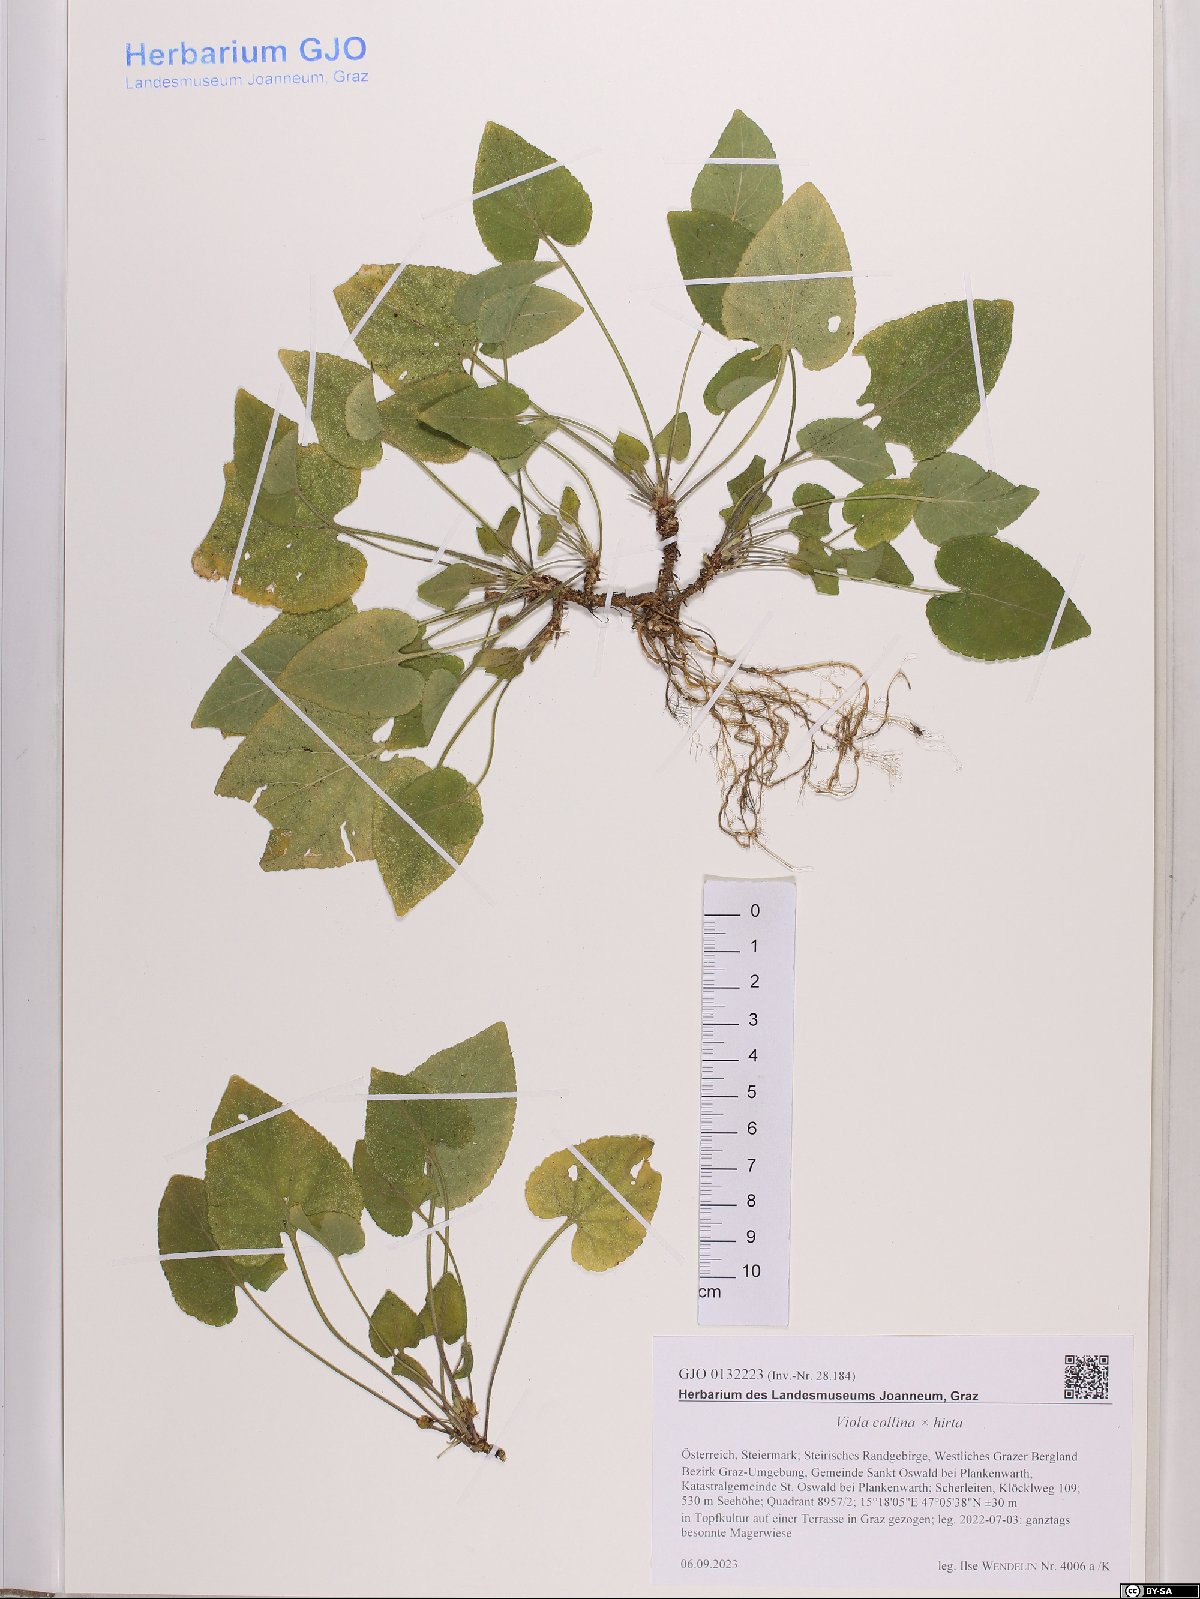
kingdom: Plantae
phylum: Tracheophyta
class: Magnoliopsida
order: Malpighiales
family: Violaceae
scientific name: Violaceae
